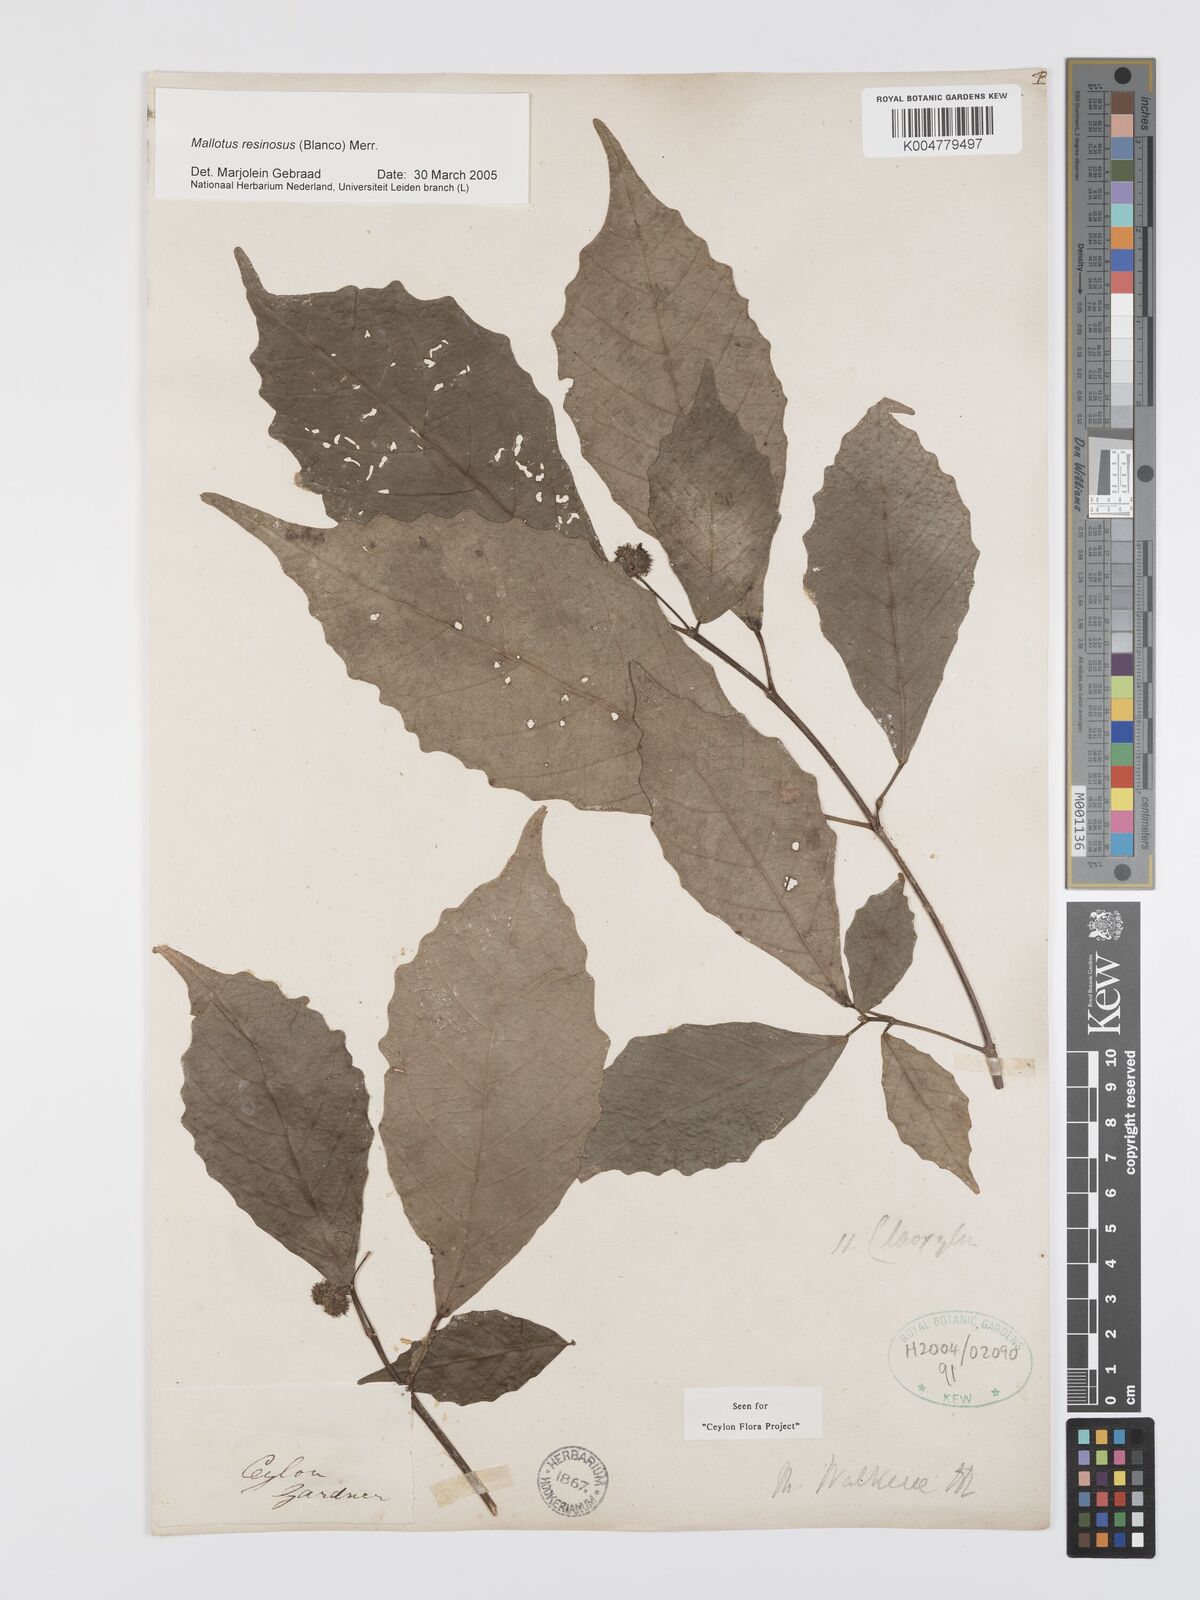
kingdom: Plantae
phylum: Tracheophyta
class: Magnoliopsida
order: Malpighiales
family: Euphorbiaceae
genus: Mallotus
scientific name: Mallotus resinosus
